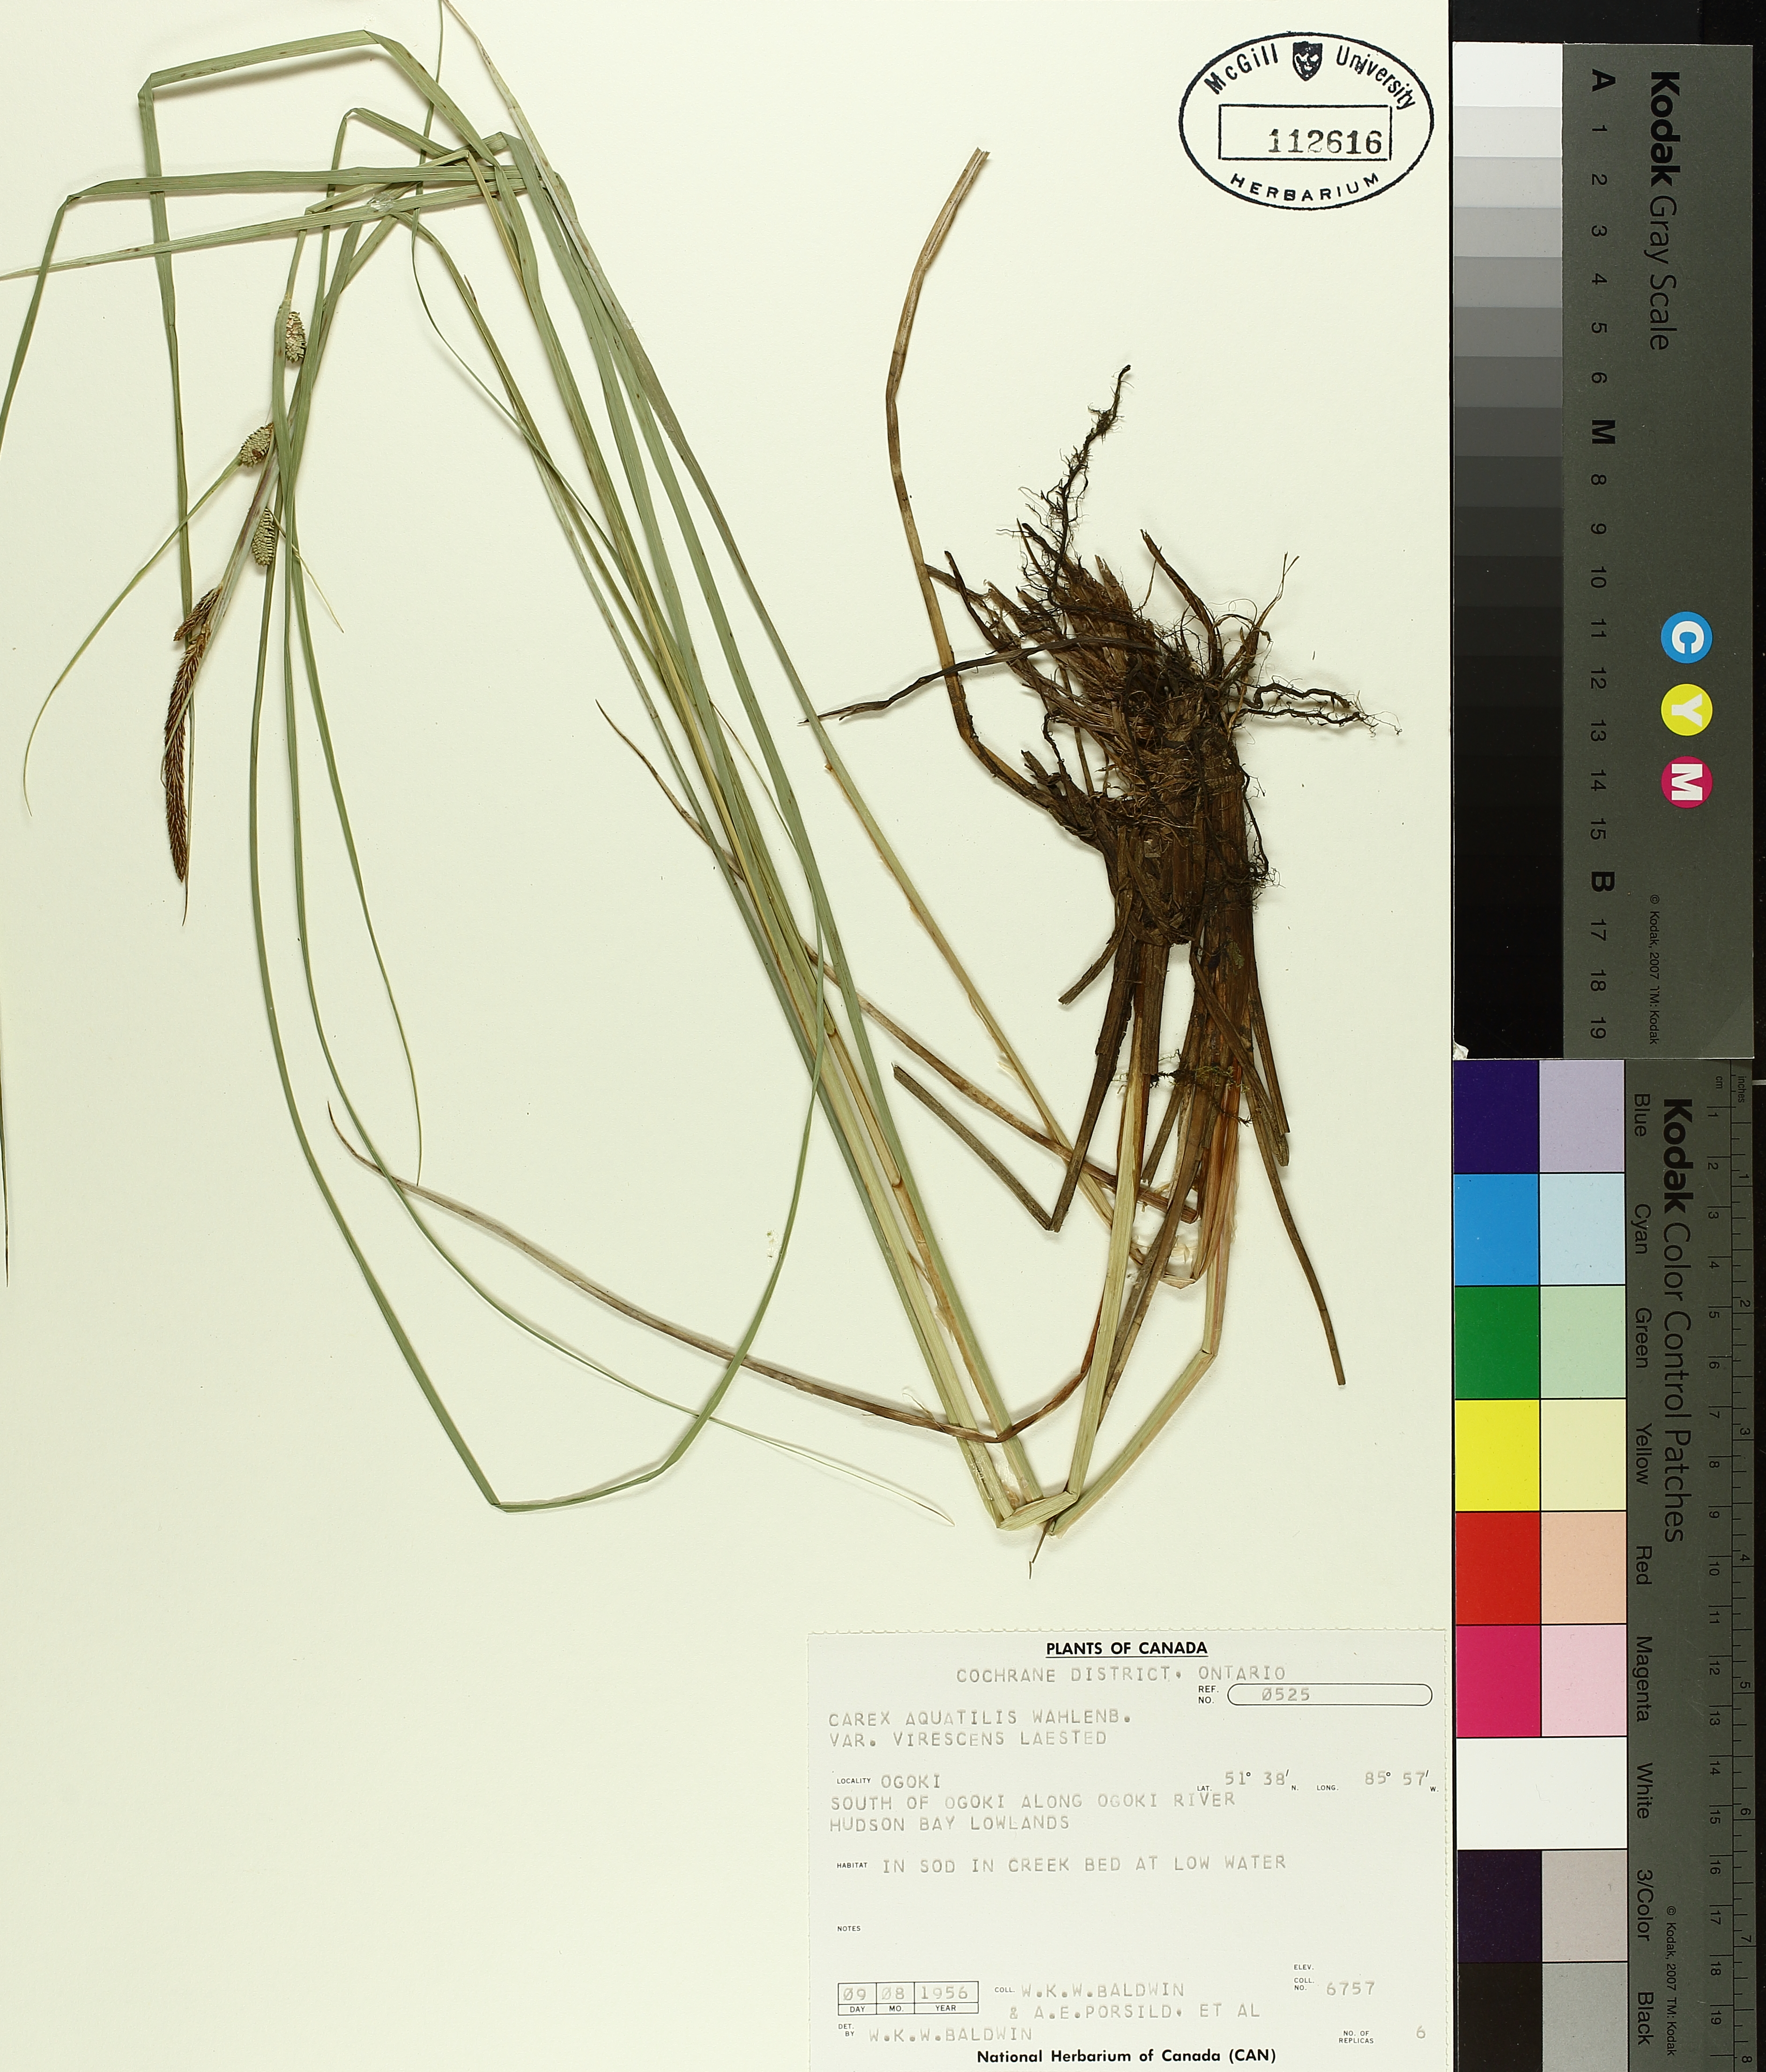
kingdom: Plantae
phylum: Tracheophyta
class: Liliopsida
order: Poales
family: Cyperaceae
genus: Carex
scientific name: Carex aquatilis
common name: Water sedge
